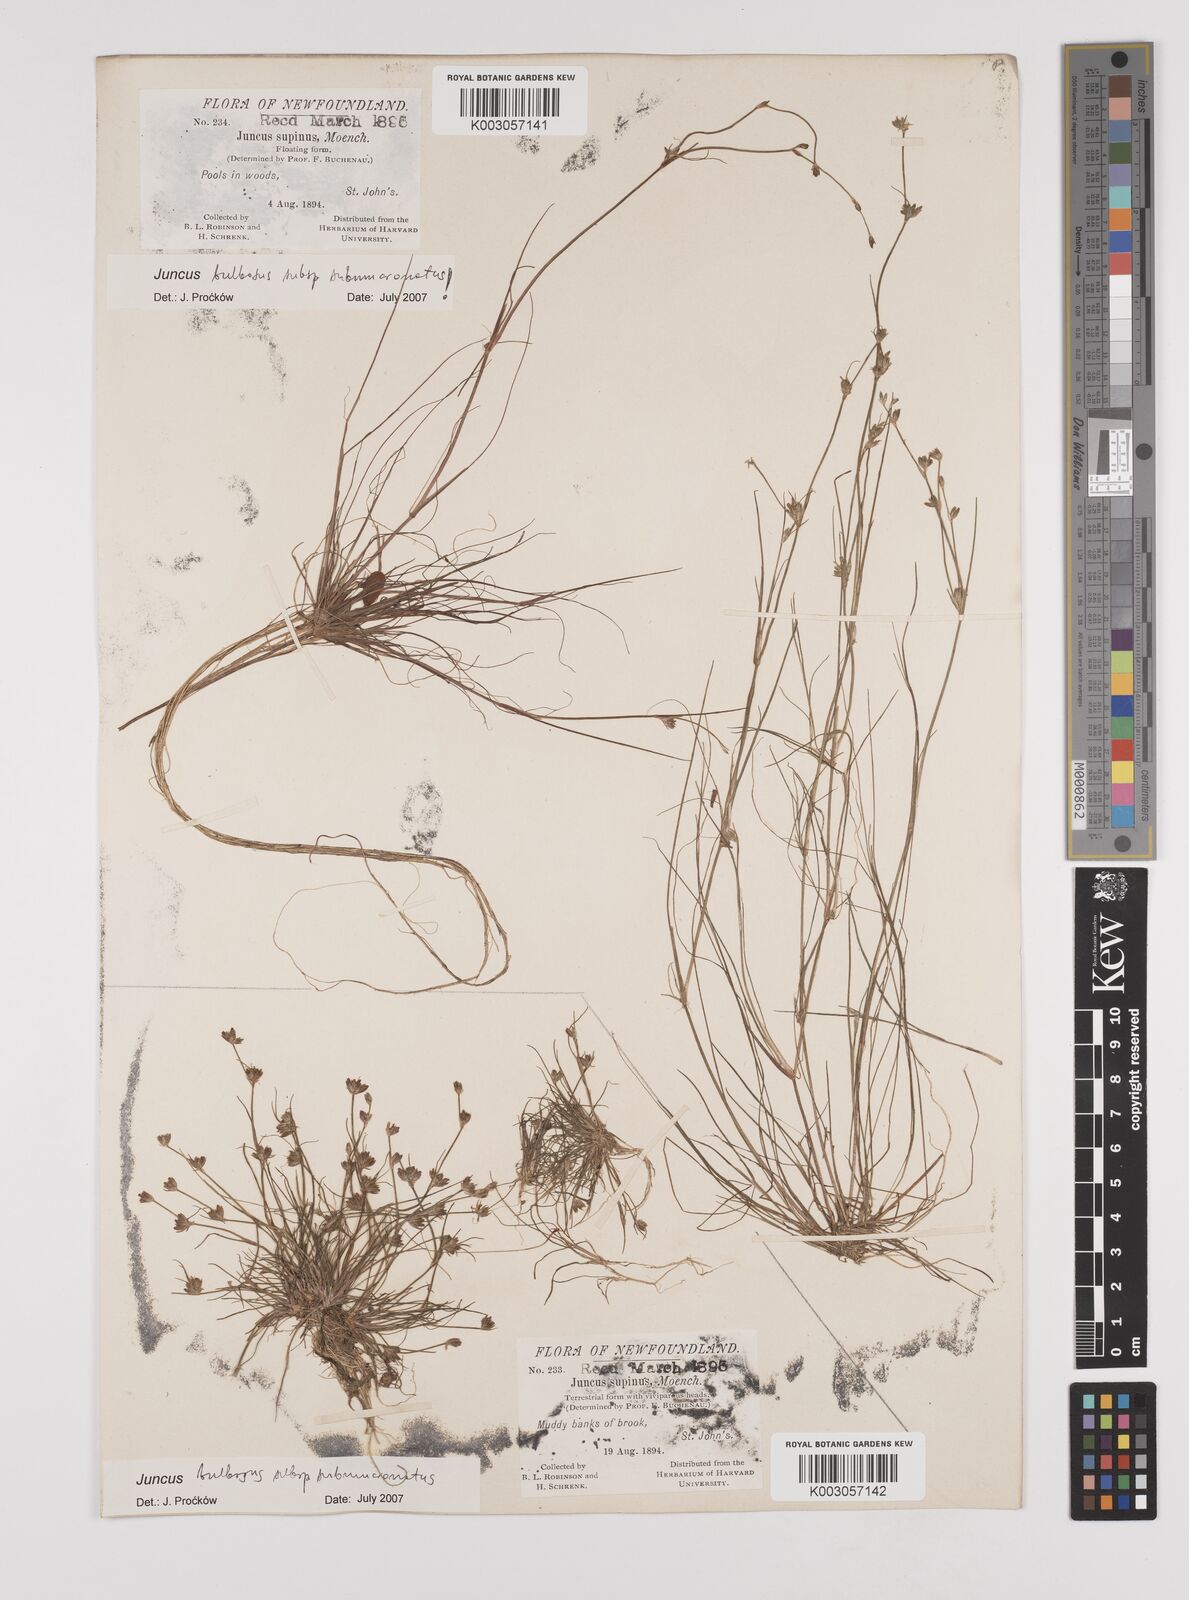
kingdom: Plantae
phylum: Tracheophyta
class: Liliopsida
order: Poales
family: Juncaceae
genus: Juncus
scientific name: Juncus bulbosus
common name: Bulbous rush
